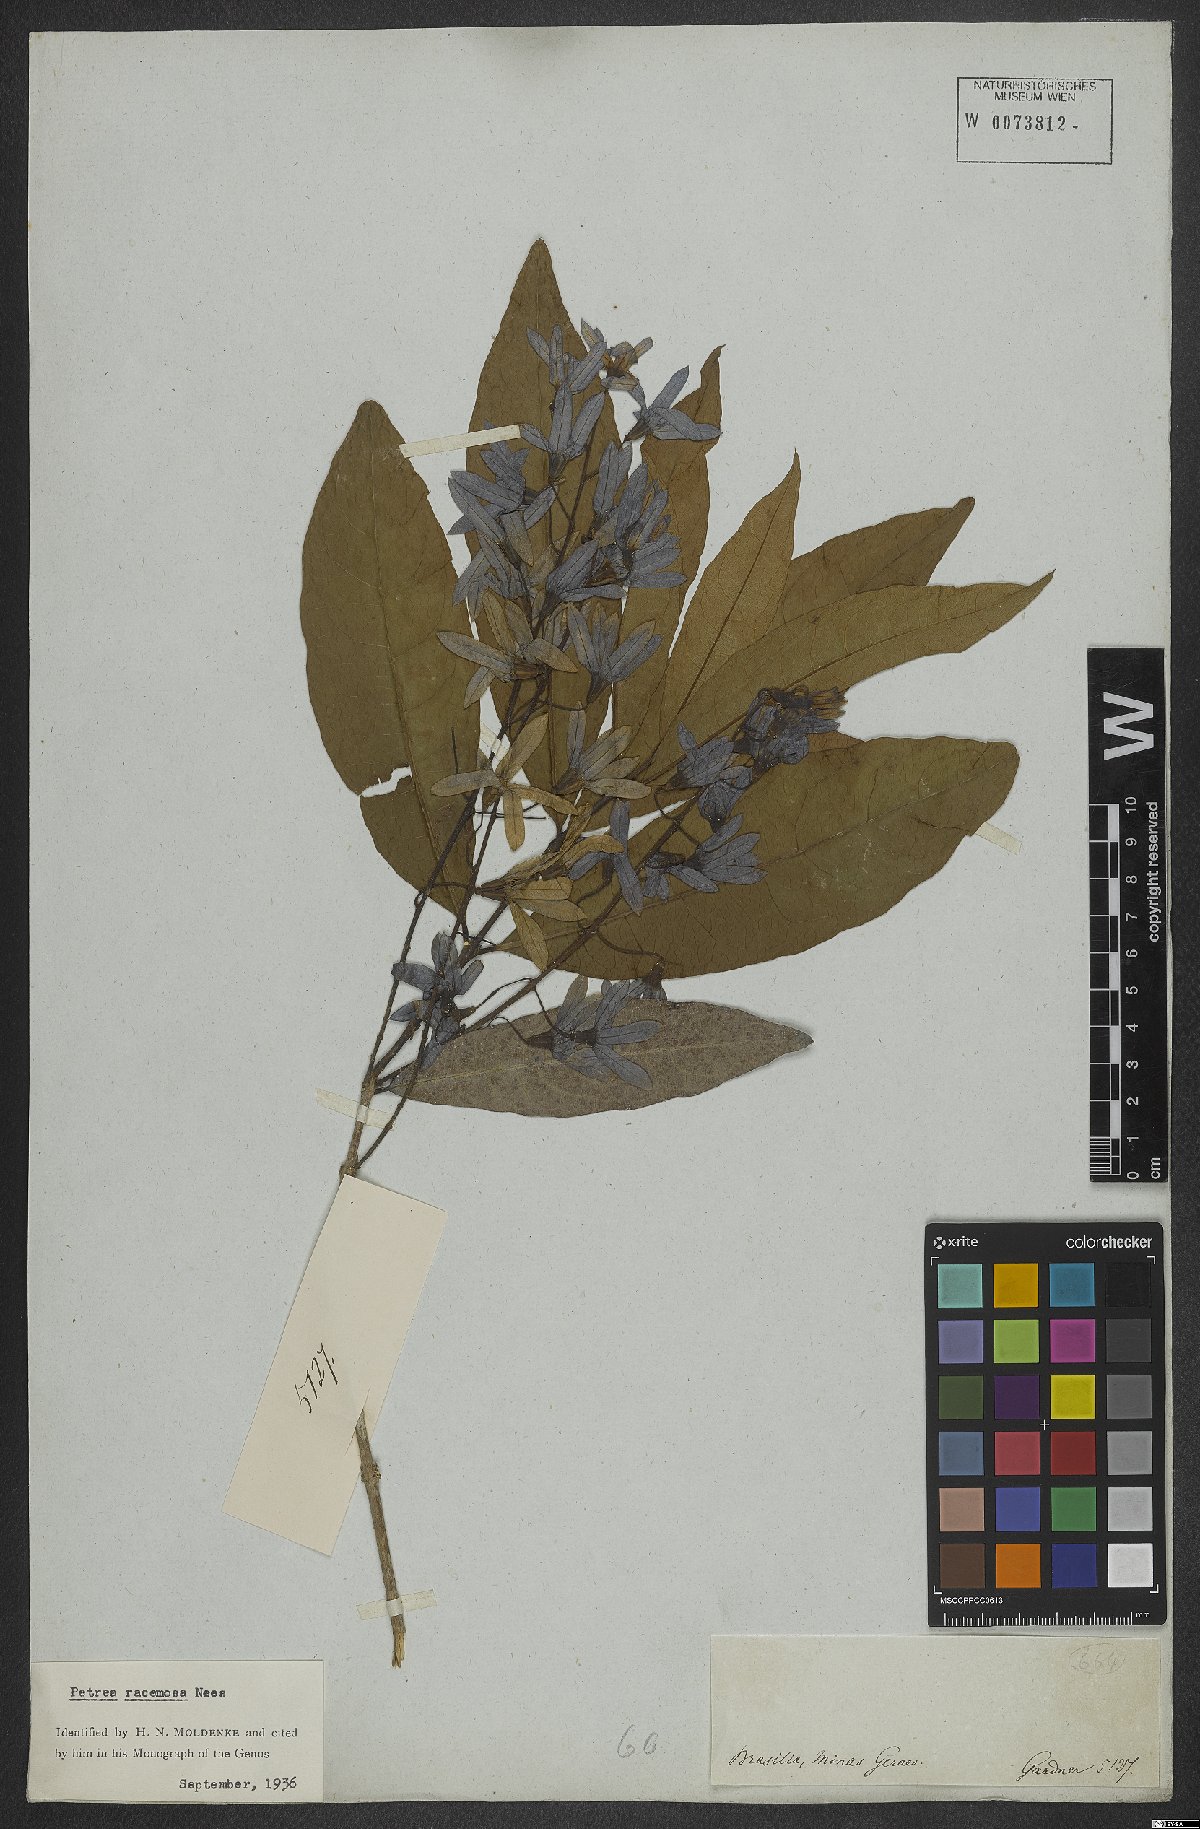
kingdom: Plantae
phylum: Tracheophyta
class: Magnoliopsida
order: Lamiales
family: Verbenaceae
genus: Petrea
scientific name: Petrea volubilis
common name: Queen's-wreath
